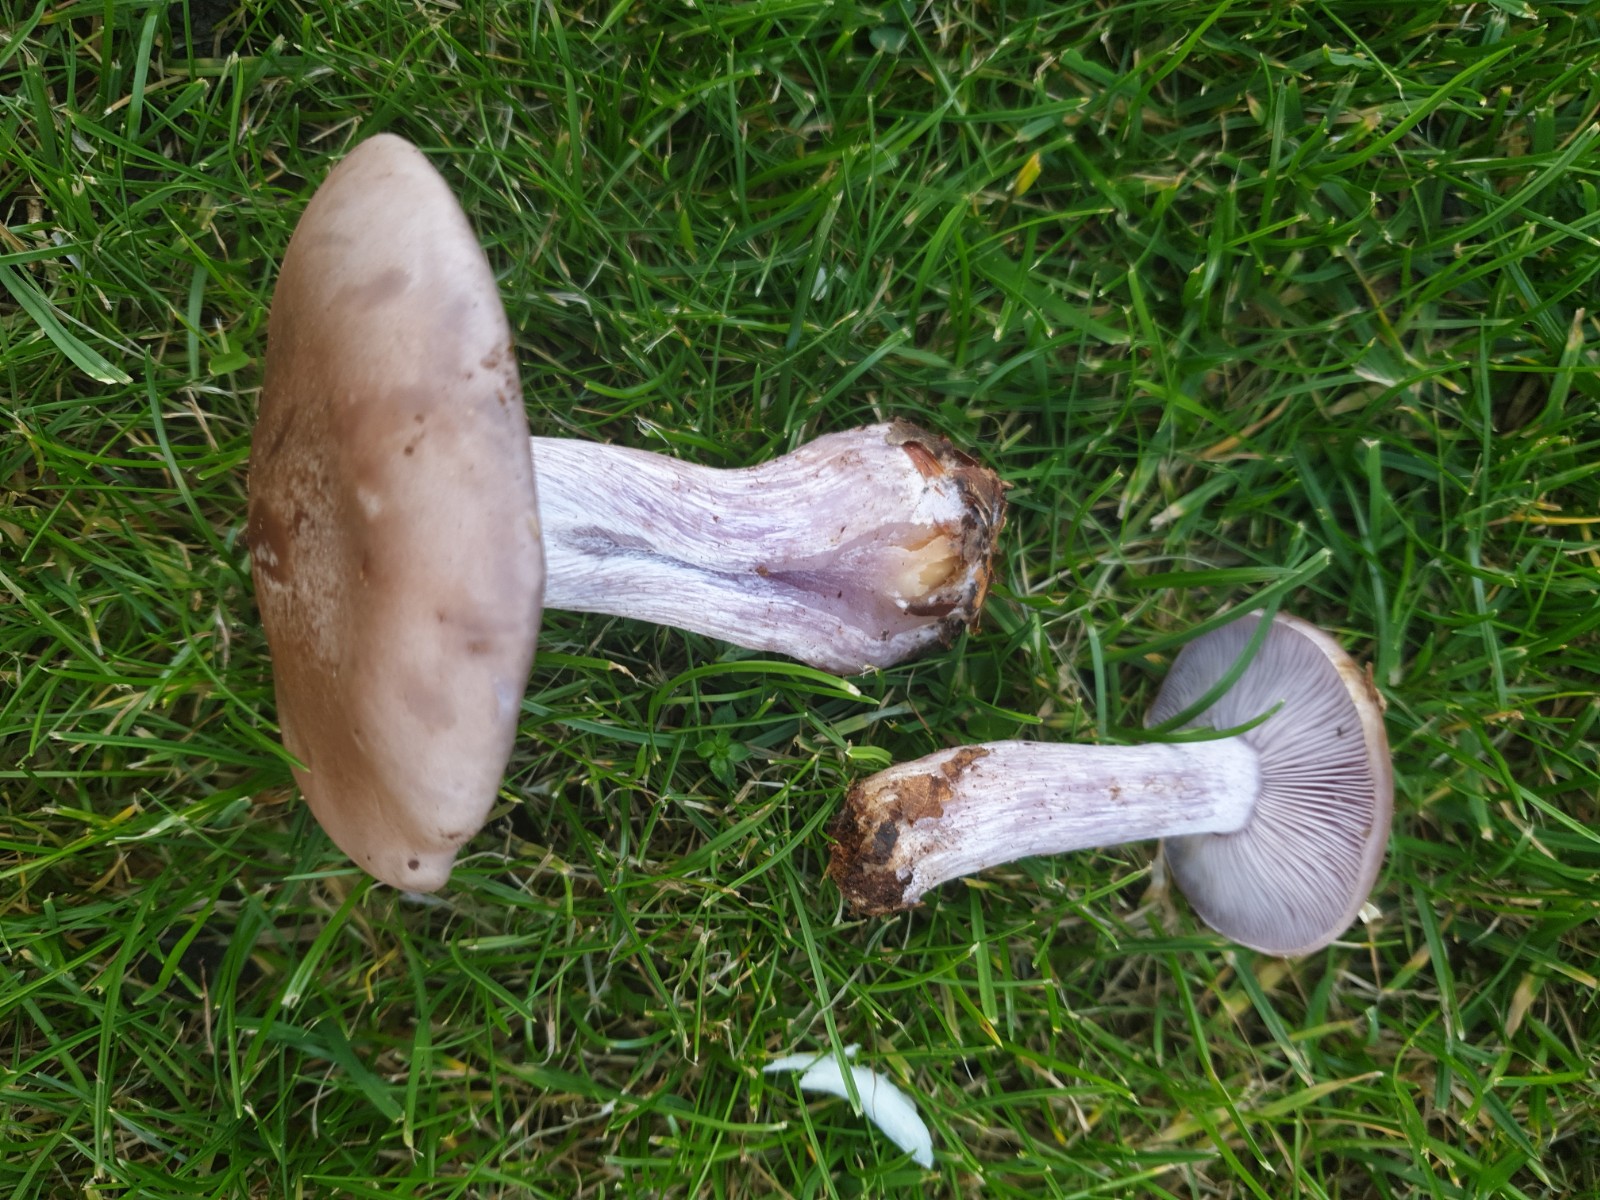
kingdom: Fungi
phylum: Basidiomycota
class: Agaricomycetes
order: Agaricales
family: Tricholomataceae
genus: Lepista
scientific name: Lepista nuda
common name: violet hekseringshat
